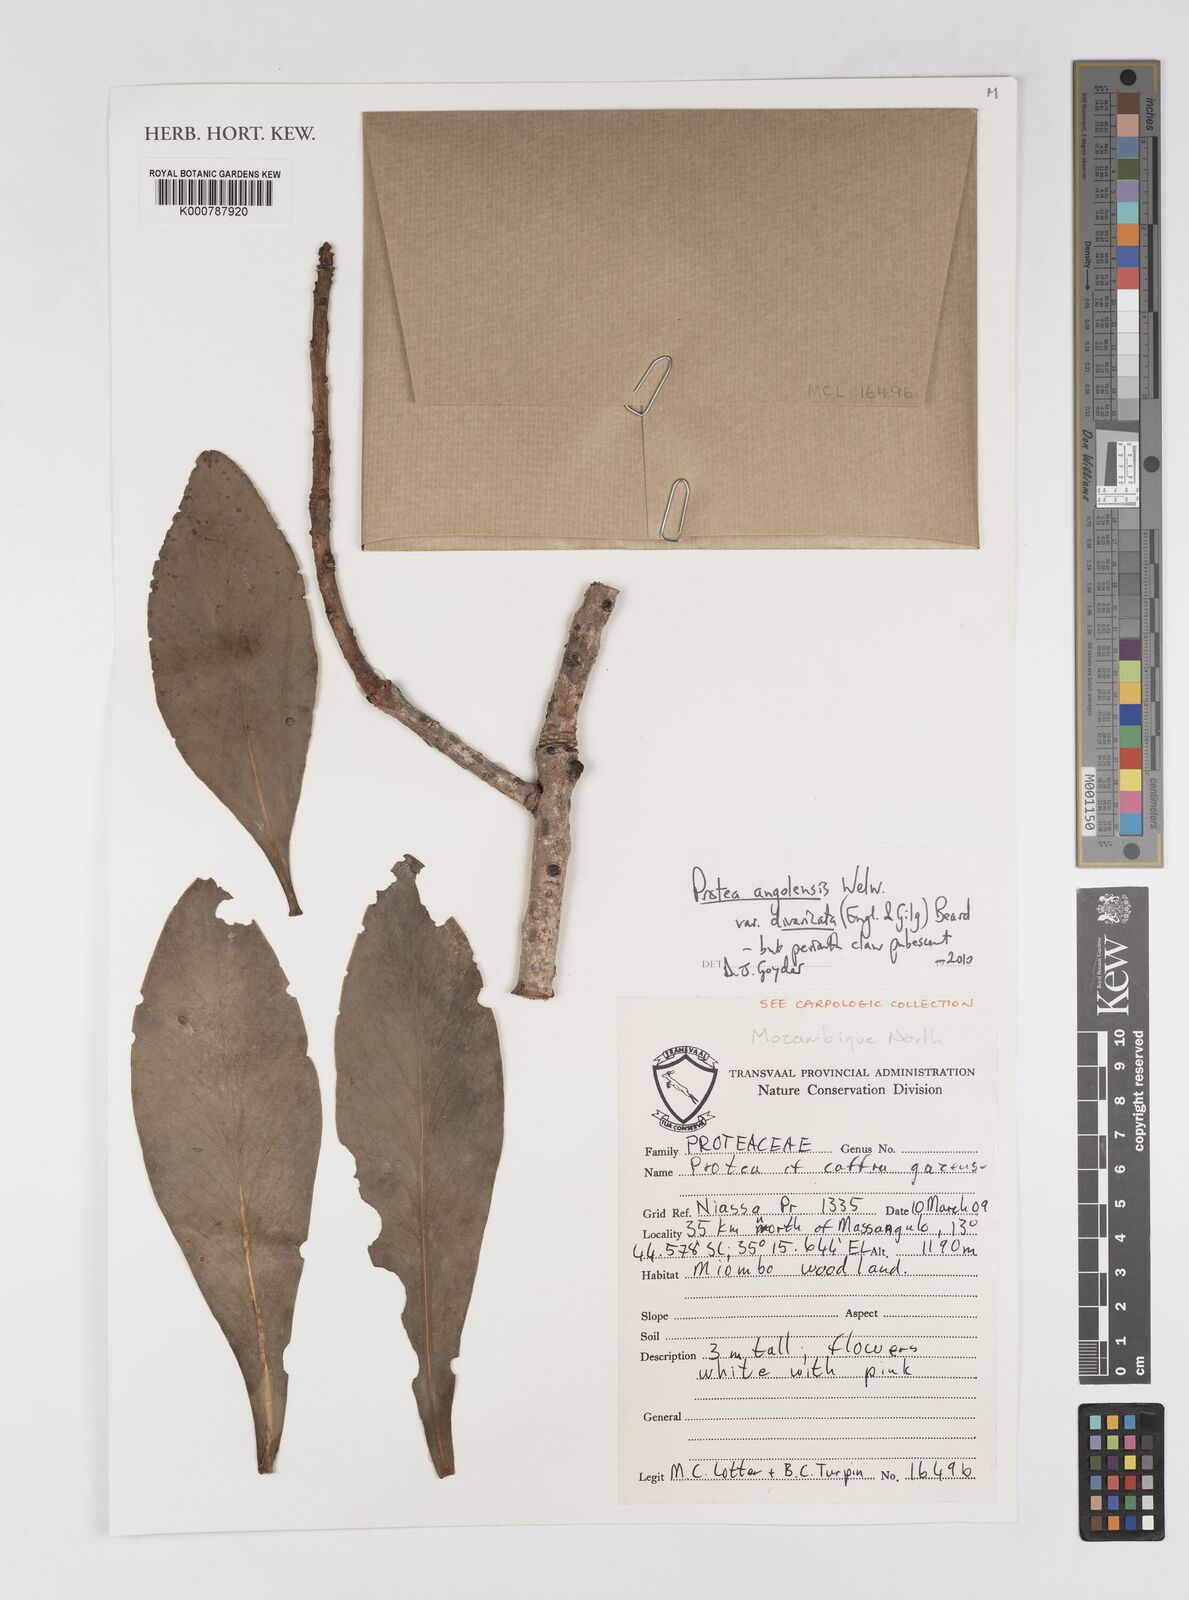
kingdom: Plantae
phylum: Tracheophyta
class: Magnoliopsida
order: Proteales
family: Proteaceae
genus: Protea
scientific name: Protea angolensis
